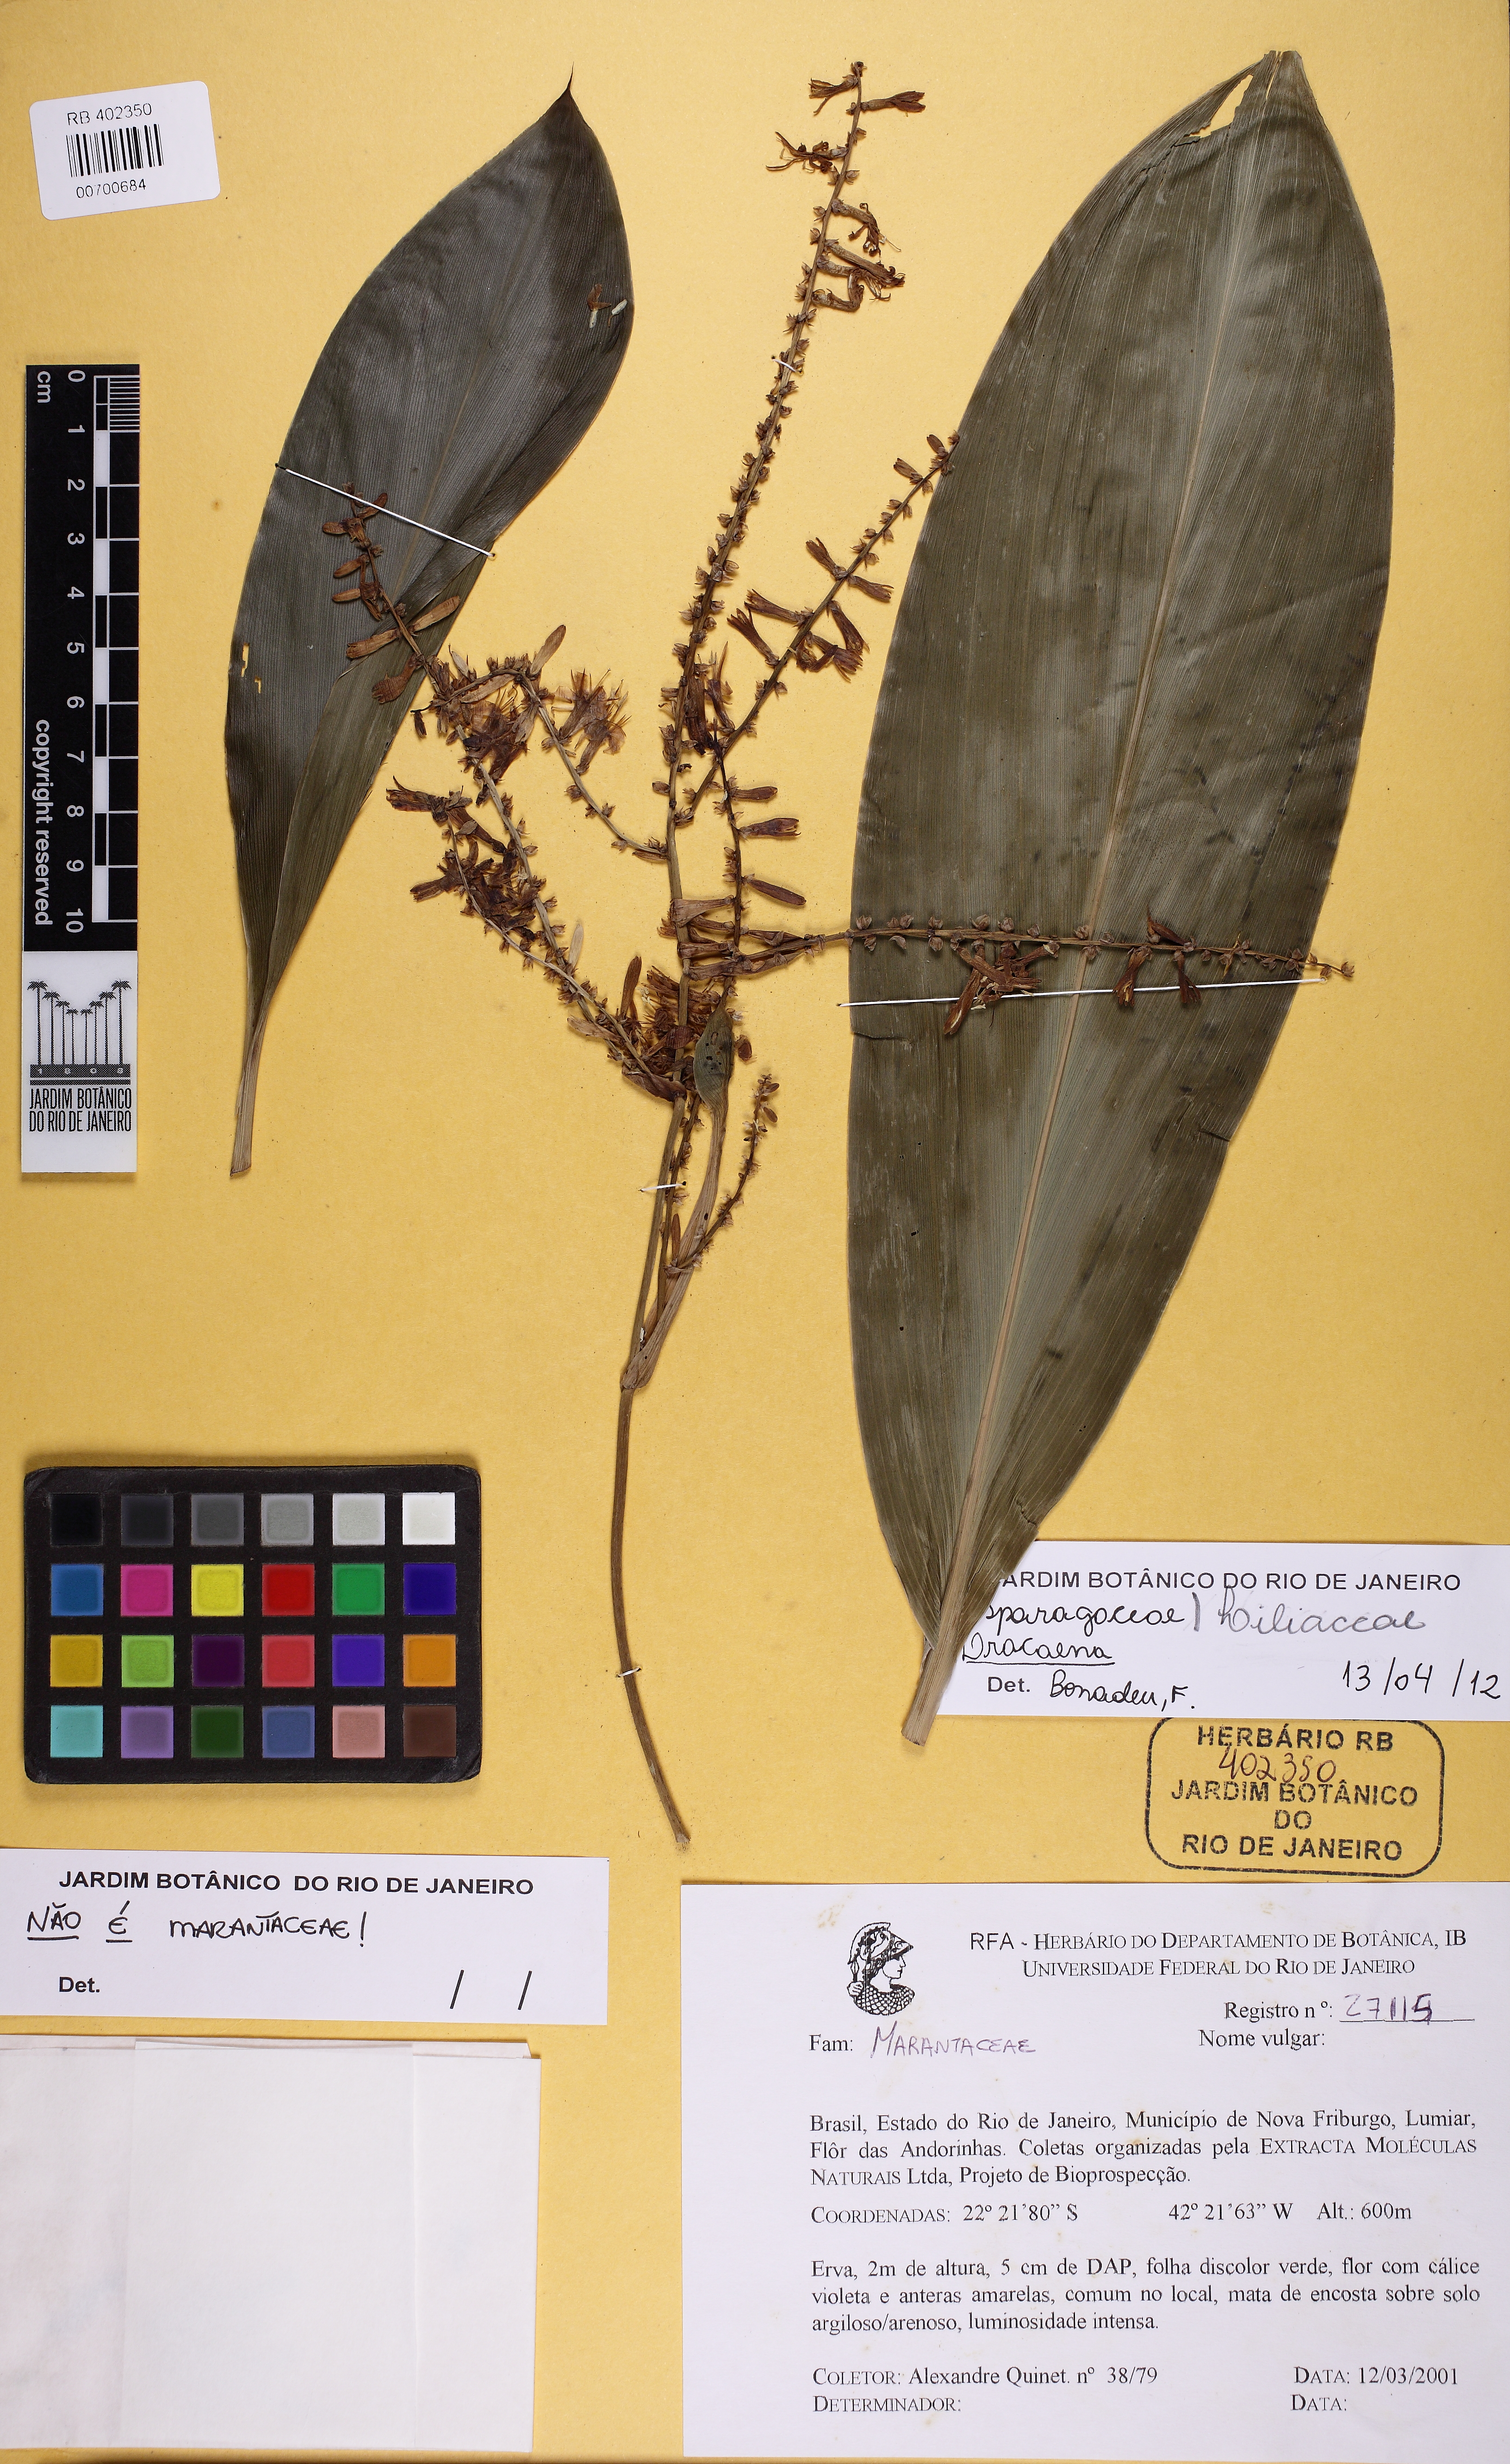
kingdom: Plantae
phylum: Tracheophyta
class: Liliopsida
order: Asparagales
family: Asparagaceae
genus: Dracaena
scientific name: Dracaena
